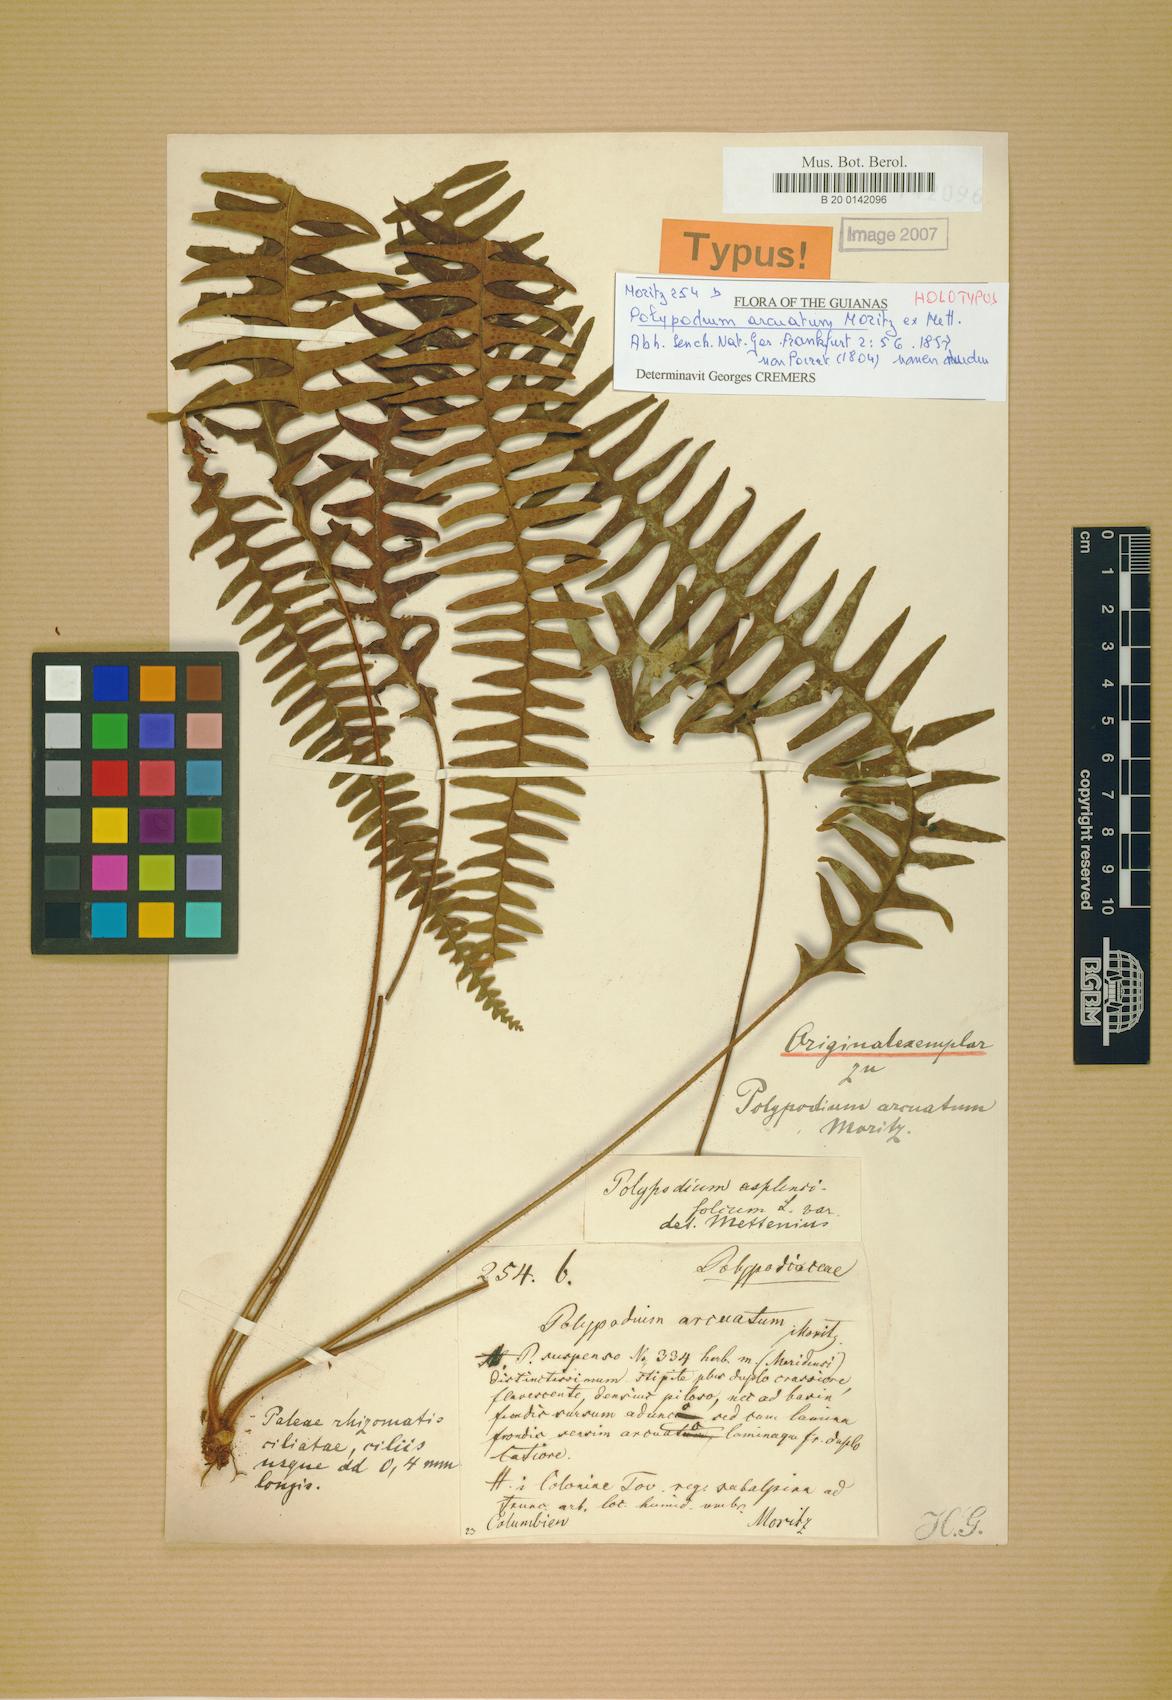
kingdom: Plantae
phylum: Tracheophyta
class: Polypodiopsida
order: Polypodiales
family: Polypodiaceae
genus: Terpsichore
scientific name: Terpsichore chrysleri
